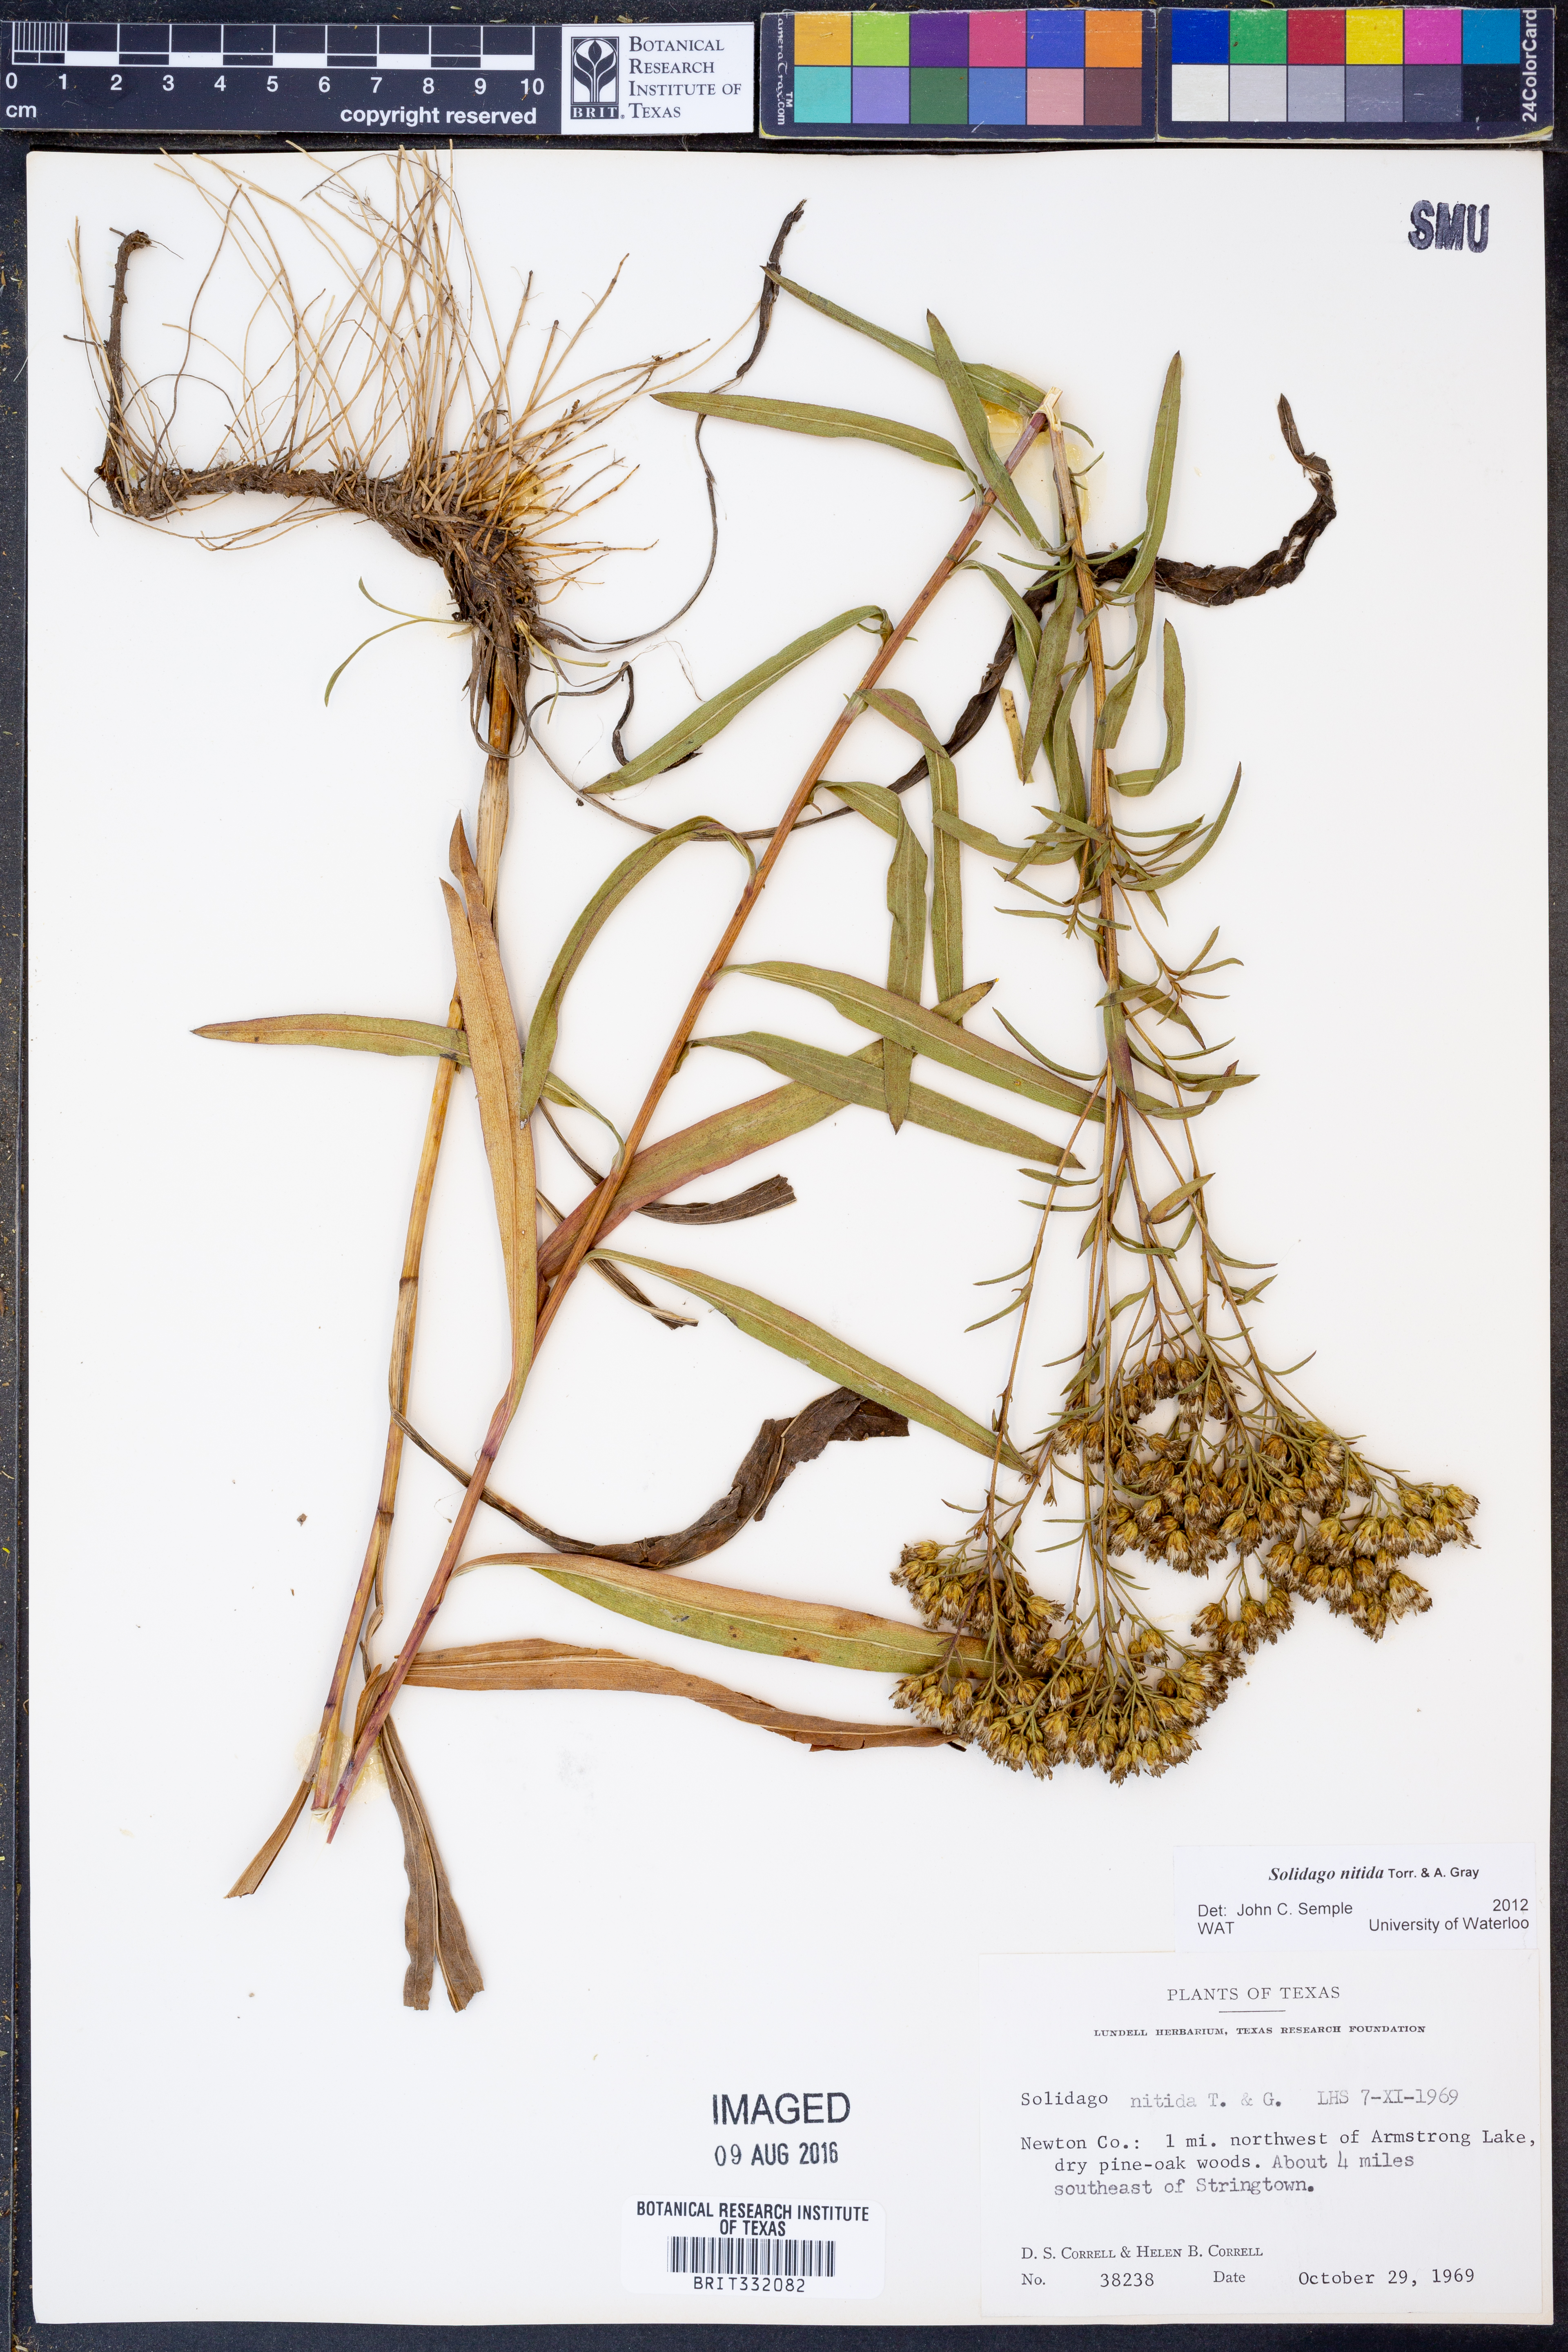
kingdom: Plantae
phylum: Tracheophyta
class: Magnoliopsida
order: Asterales
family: Asteraceae
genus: Solidago
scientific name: Solidago nitida
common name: Shiny goldenrod
